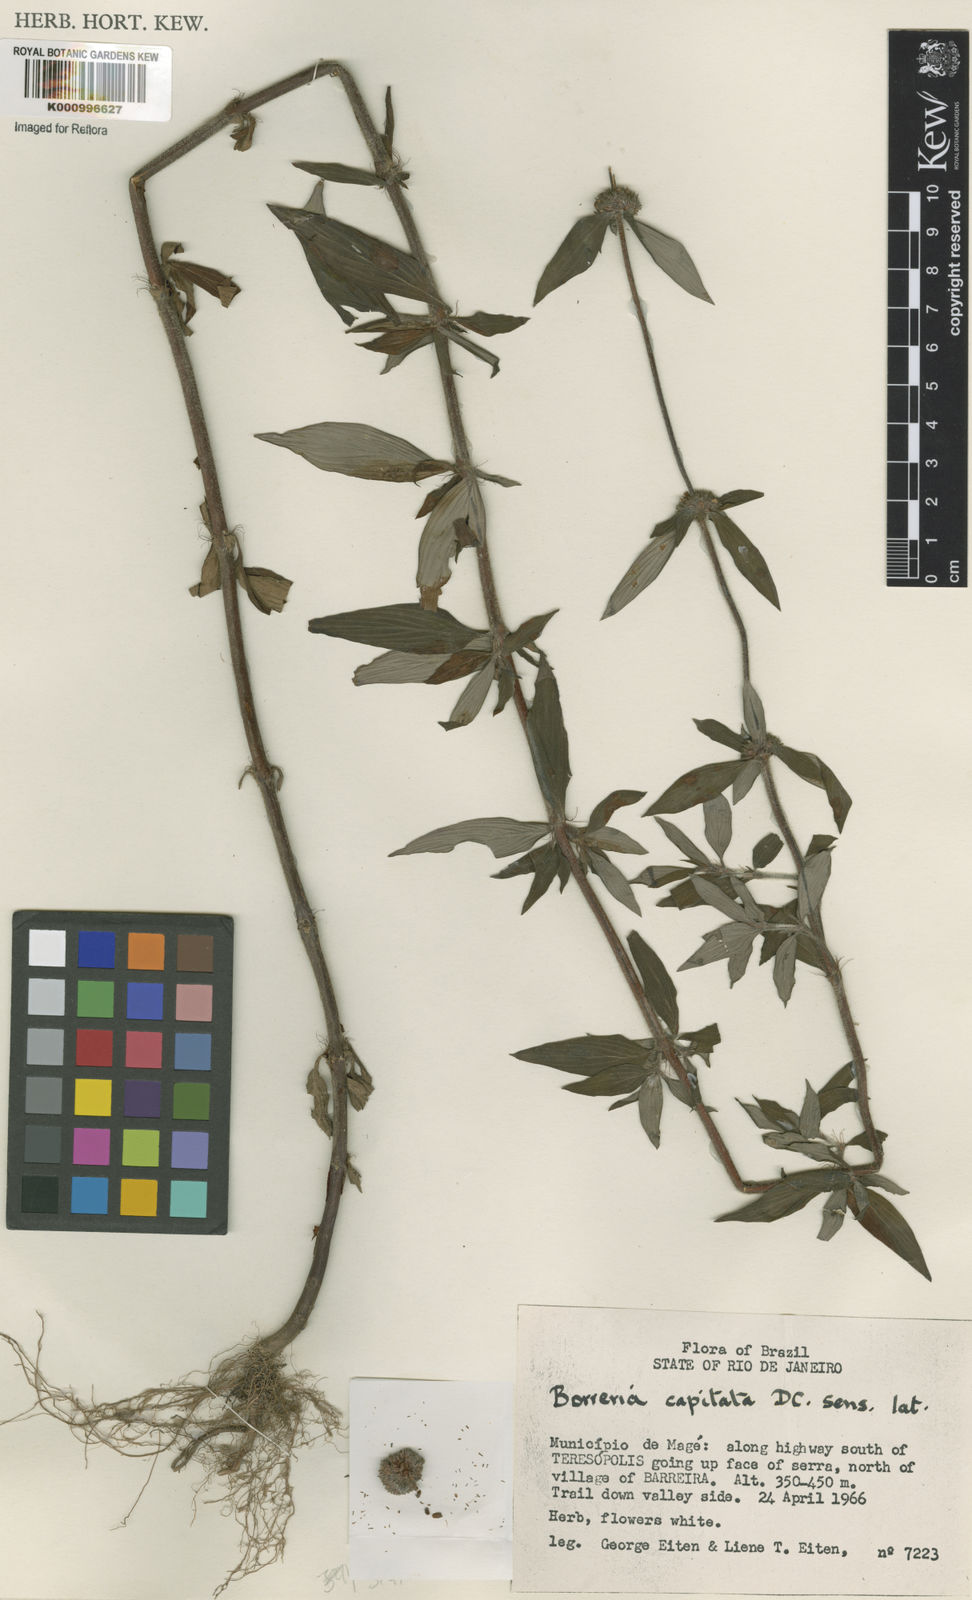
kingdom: Plantae
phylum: Tracheophyta
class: Magnoliopsida
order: Gentianales
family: Rubiaceae
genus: Spermacoce
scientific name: Spermacoce
